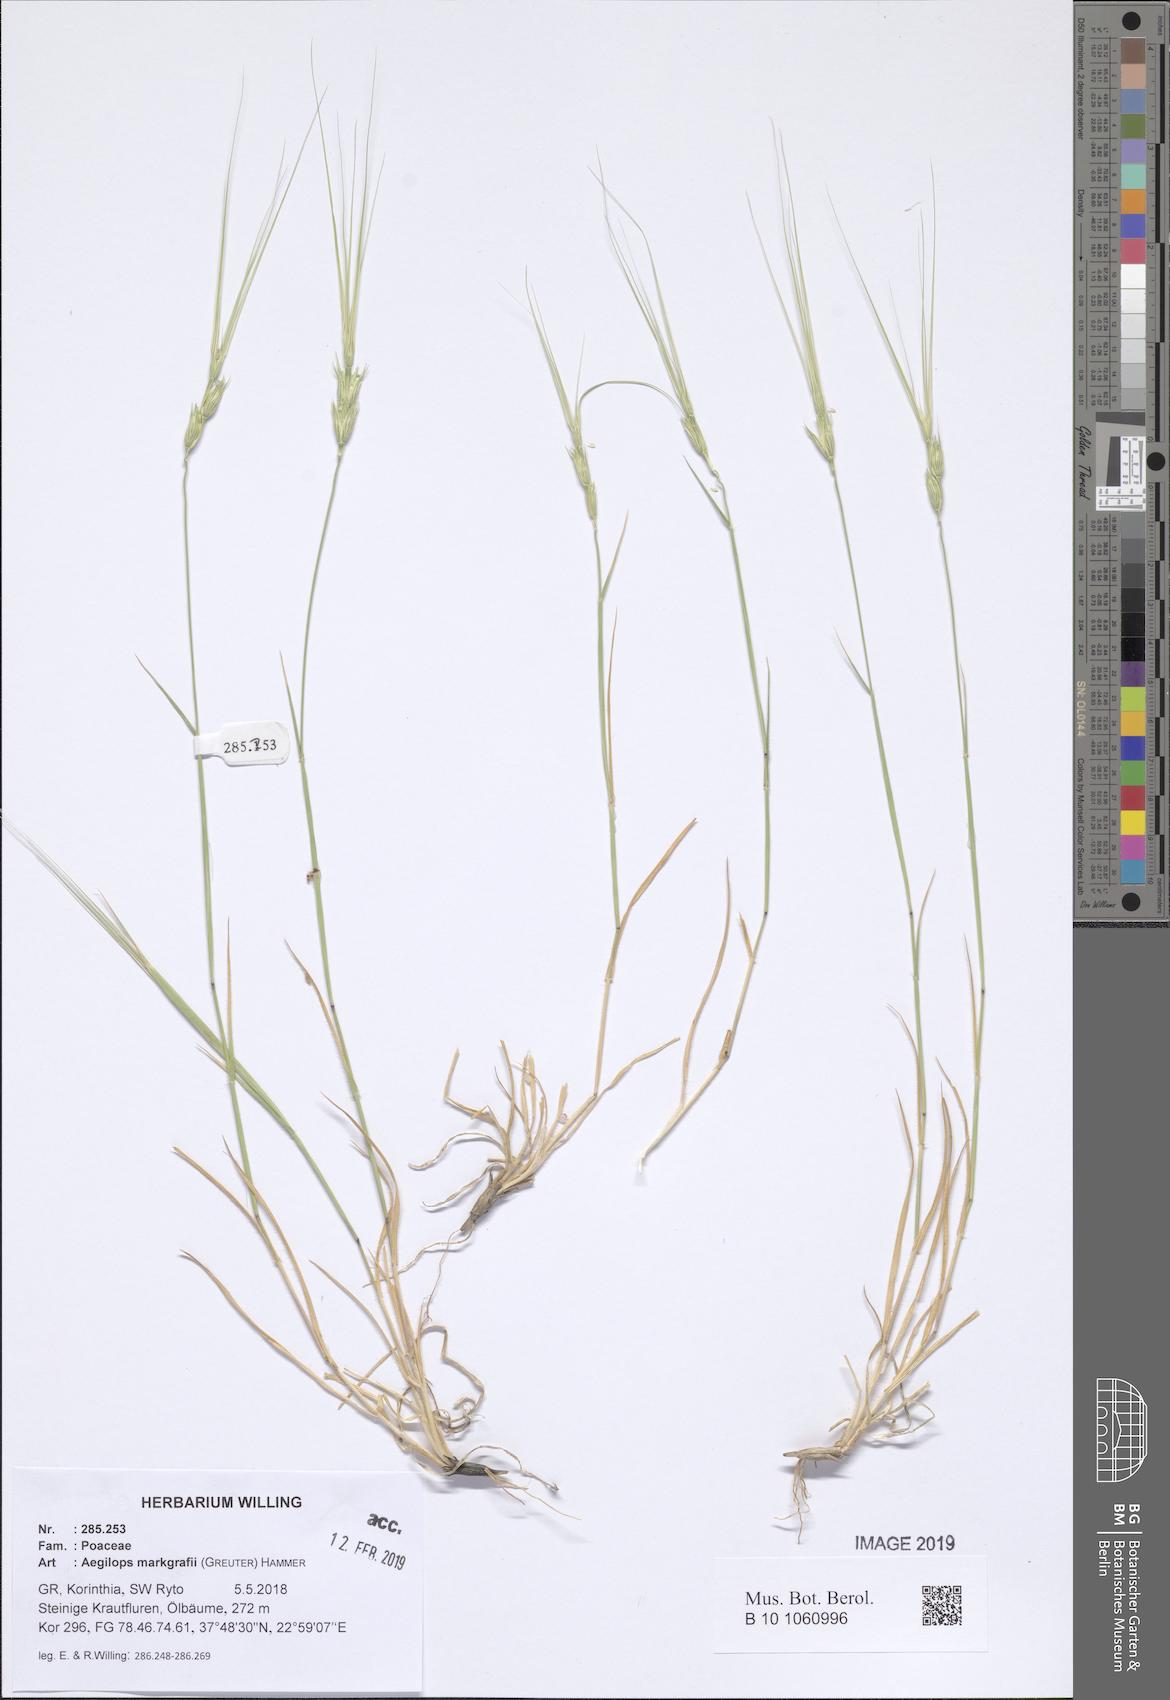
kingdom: Plantae
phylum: Tracheophyta
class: Liliopsida
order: Poales
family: Poaceae
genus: Aegilops
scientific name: Aegilops caudata
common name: Cretan hard-grass
